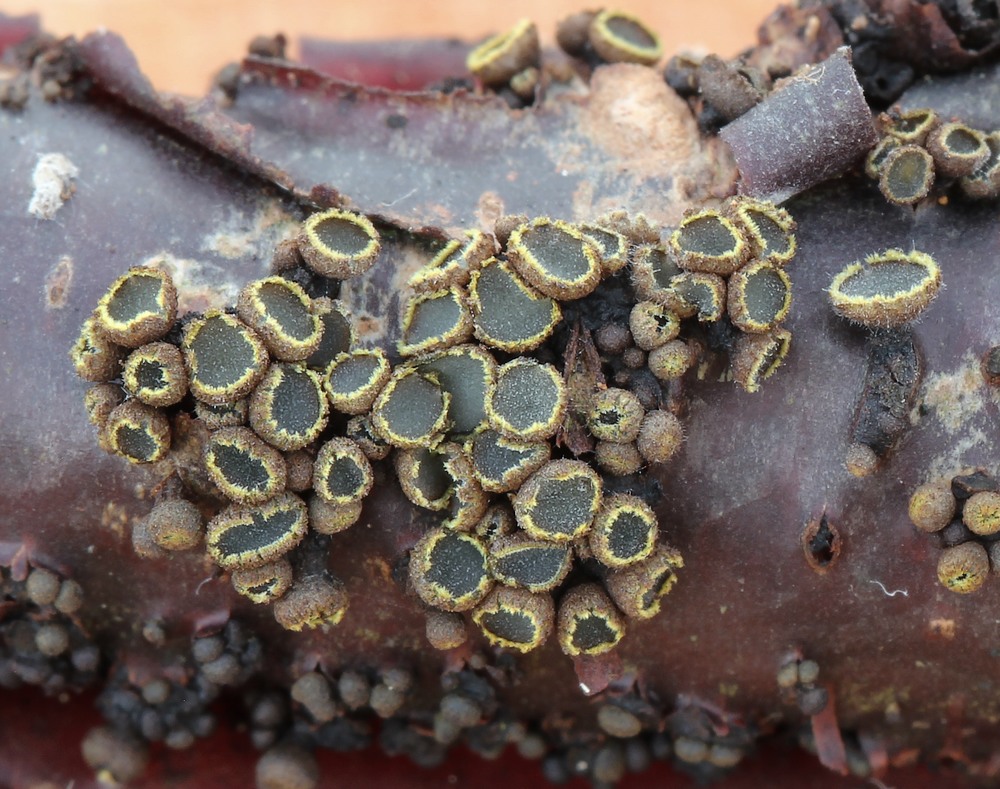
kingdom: Fungi
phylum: Ascomycota
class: Leotiomycetes
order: Helotiales
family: Godroniaceae
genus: Godronia
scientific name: Godronia uberiformis
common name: solbær-urneskive
